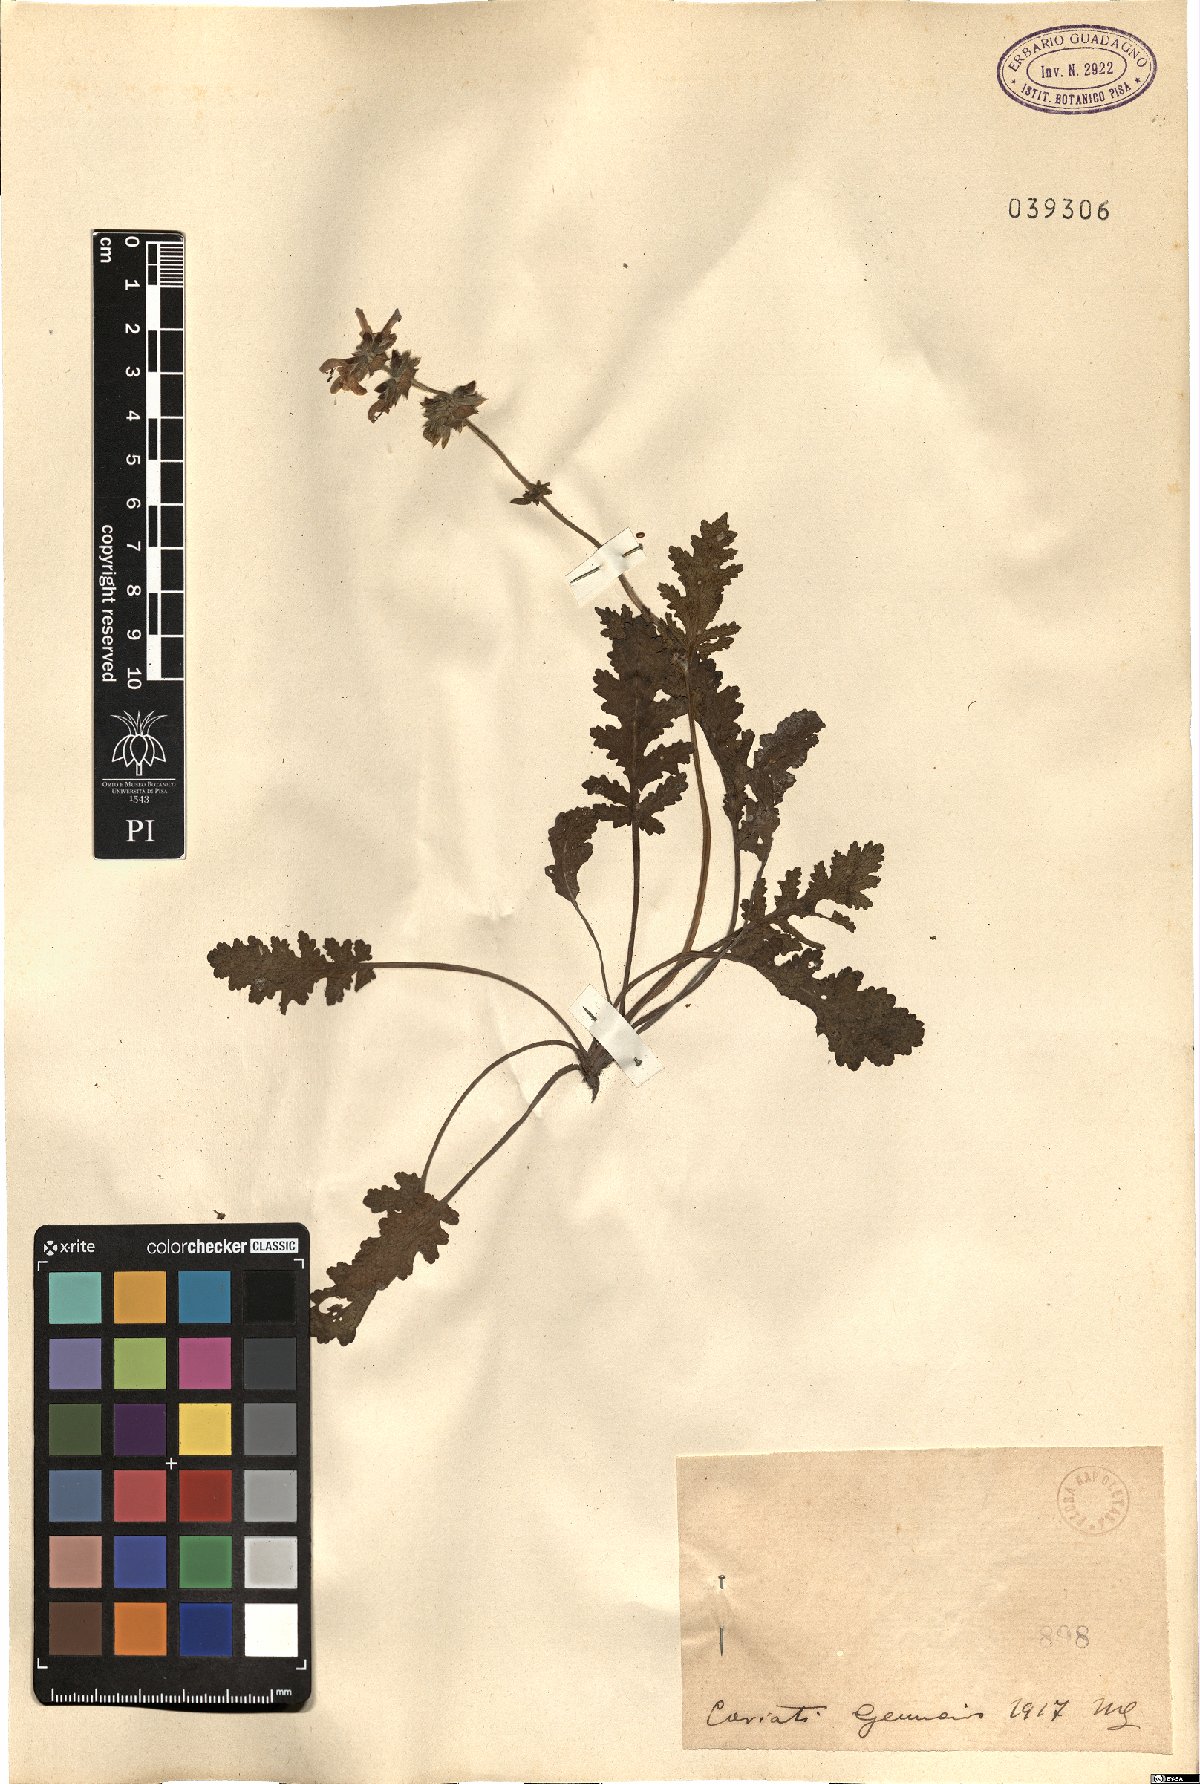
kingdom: Plantae
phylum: Tracheophyta
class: Magnoliopsida
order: Lamiales
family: Lamiaceae
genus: Salvia
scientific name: Salvia
